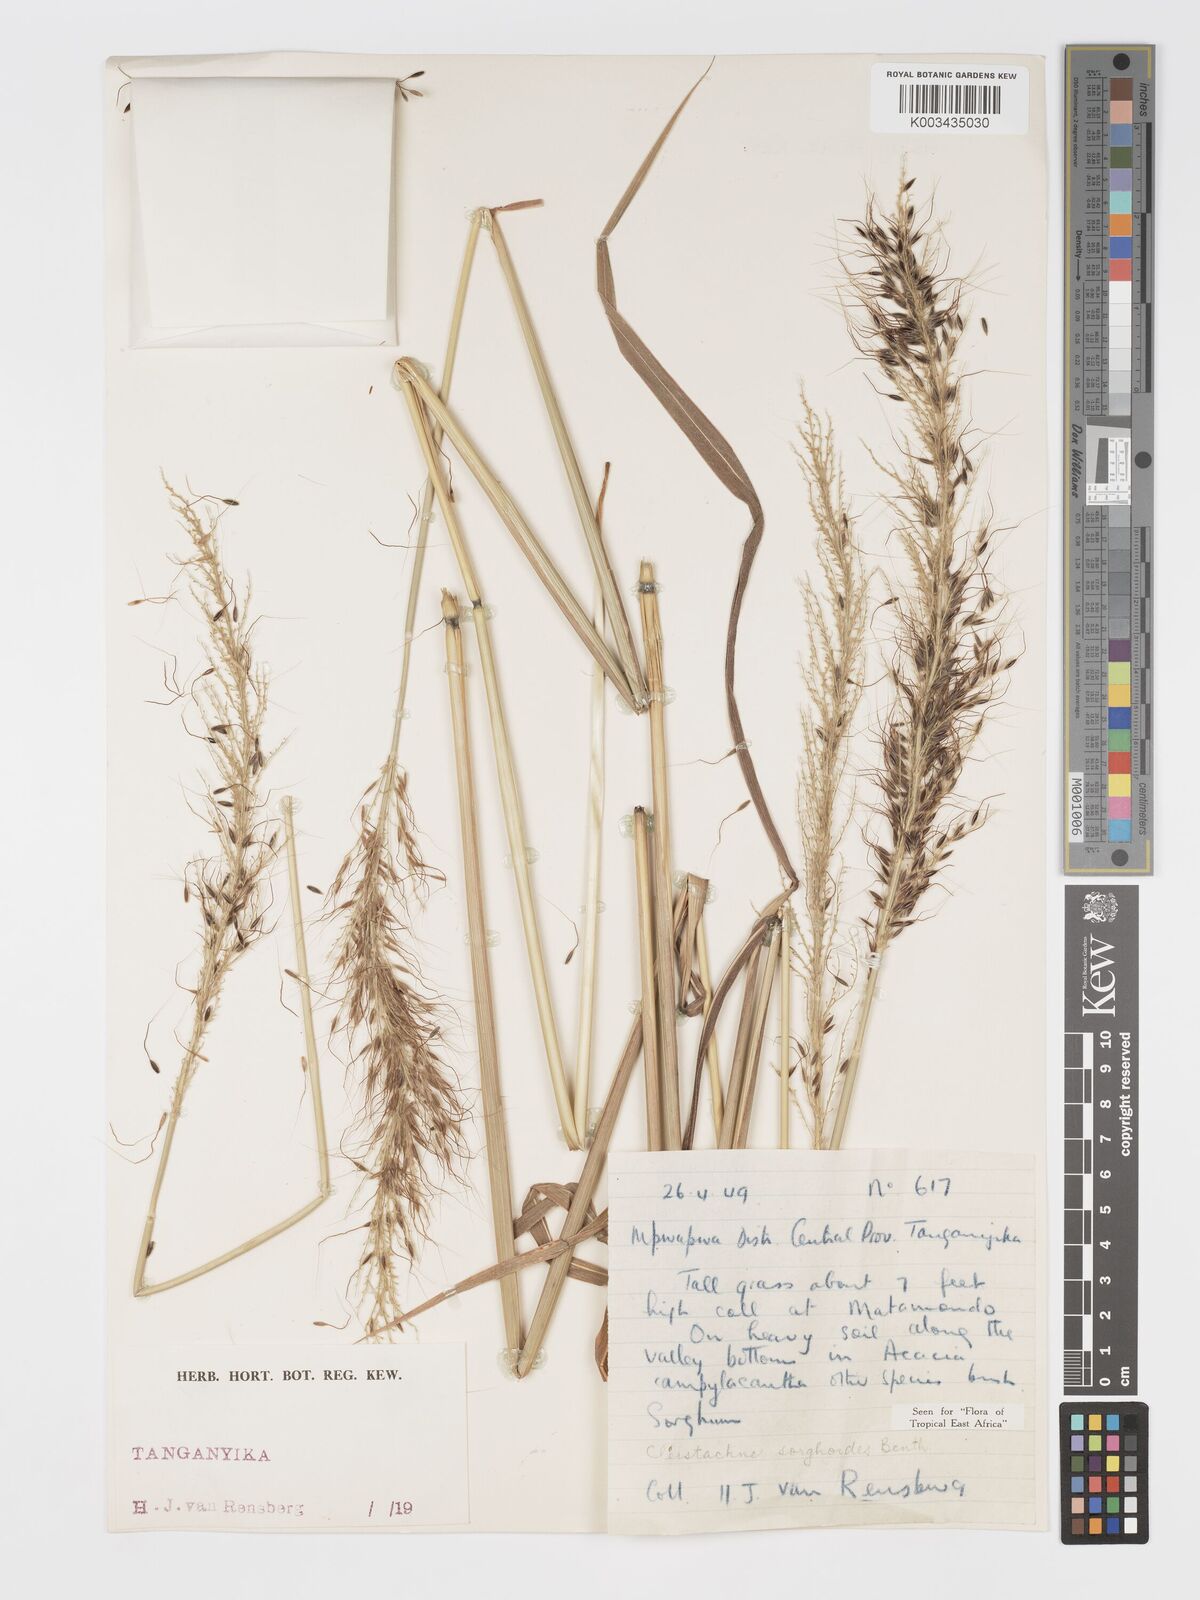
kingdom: Plantae
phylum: Tracheophyta
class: Liliopsida
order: Poales
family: Poaceae
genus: Cleistachne
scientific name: Cleistachne sorghoides
